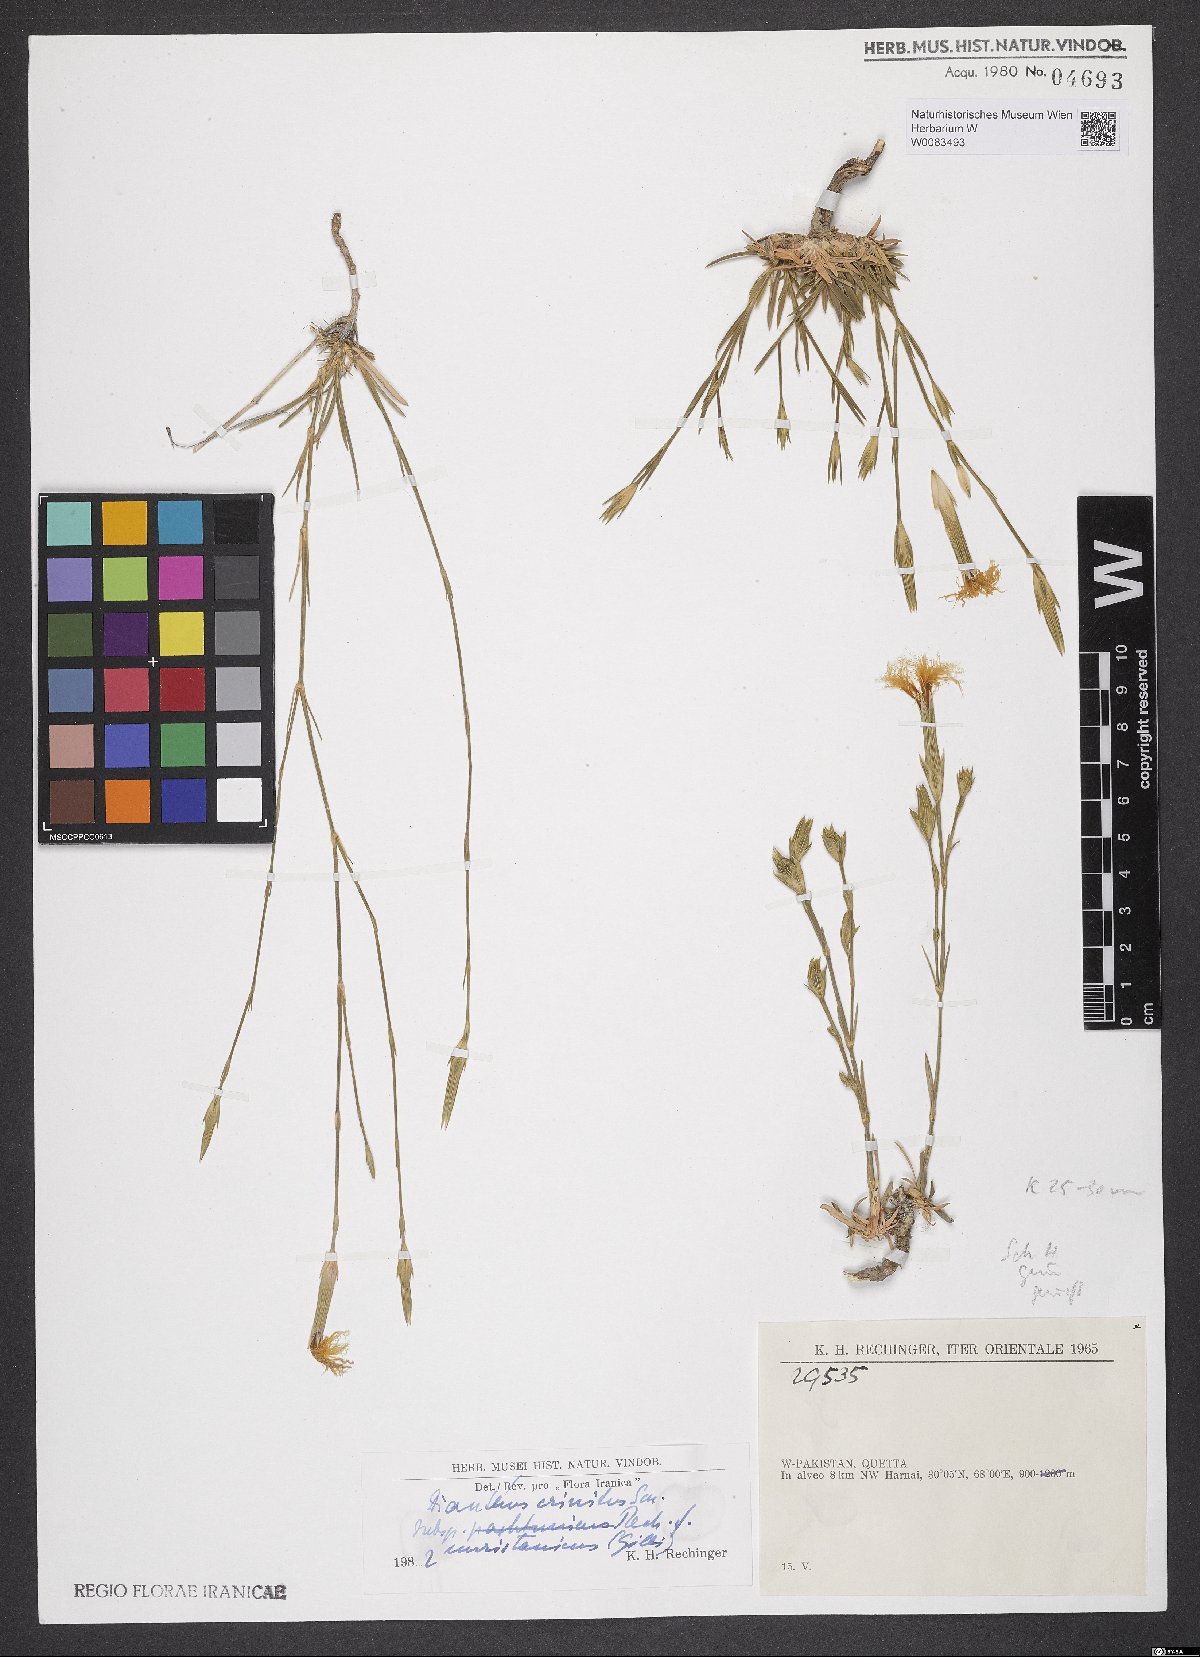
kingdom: Plantae
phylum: Tracheophyta
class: Magnoliopsida
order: Caryophyllales
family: Caryophyllaceae
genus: Dianthus
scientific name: Dianthus crinitus
